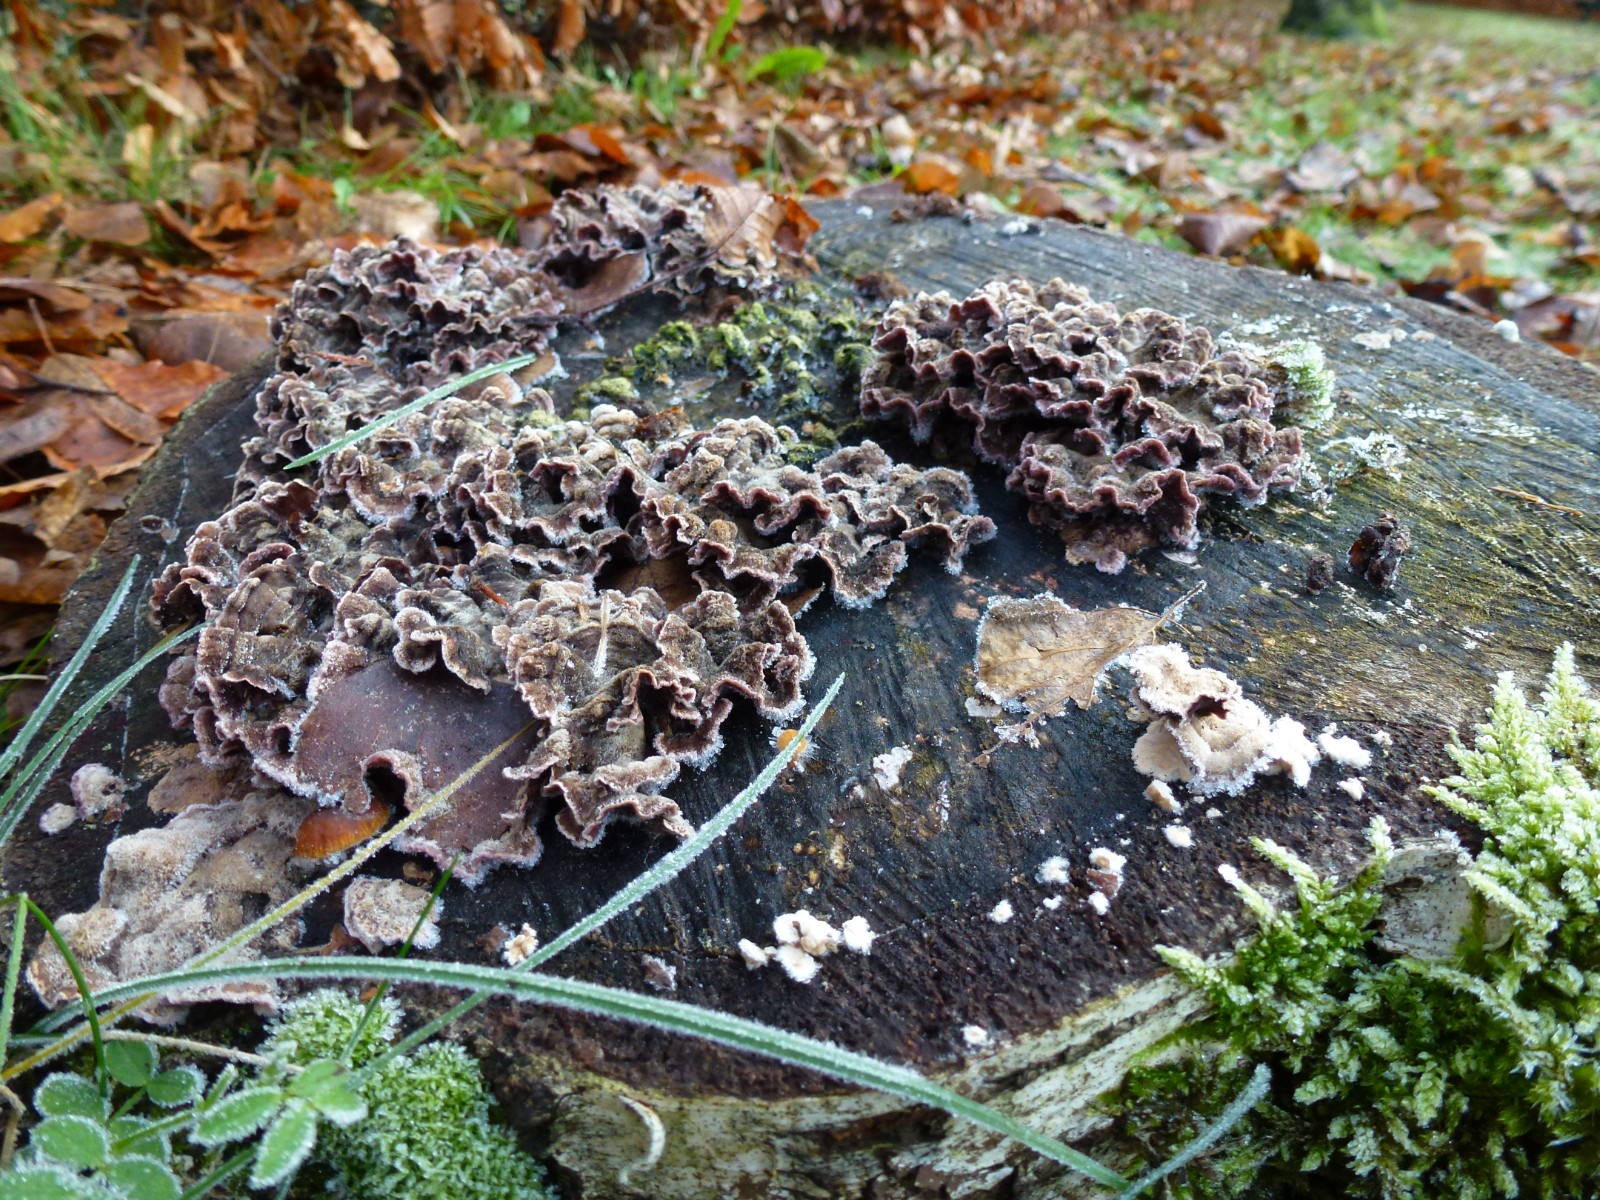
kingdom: Fungi
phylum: Basidiomycota
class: Agaricomycetes
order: Agaricales
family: Cyphellaceae
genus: Chondrostereum
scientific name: Chondrostereum purpureum
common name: purpurlædersvamp
